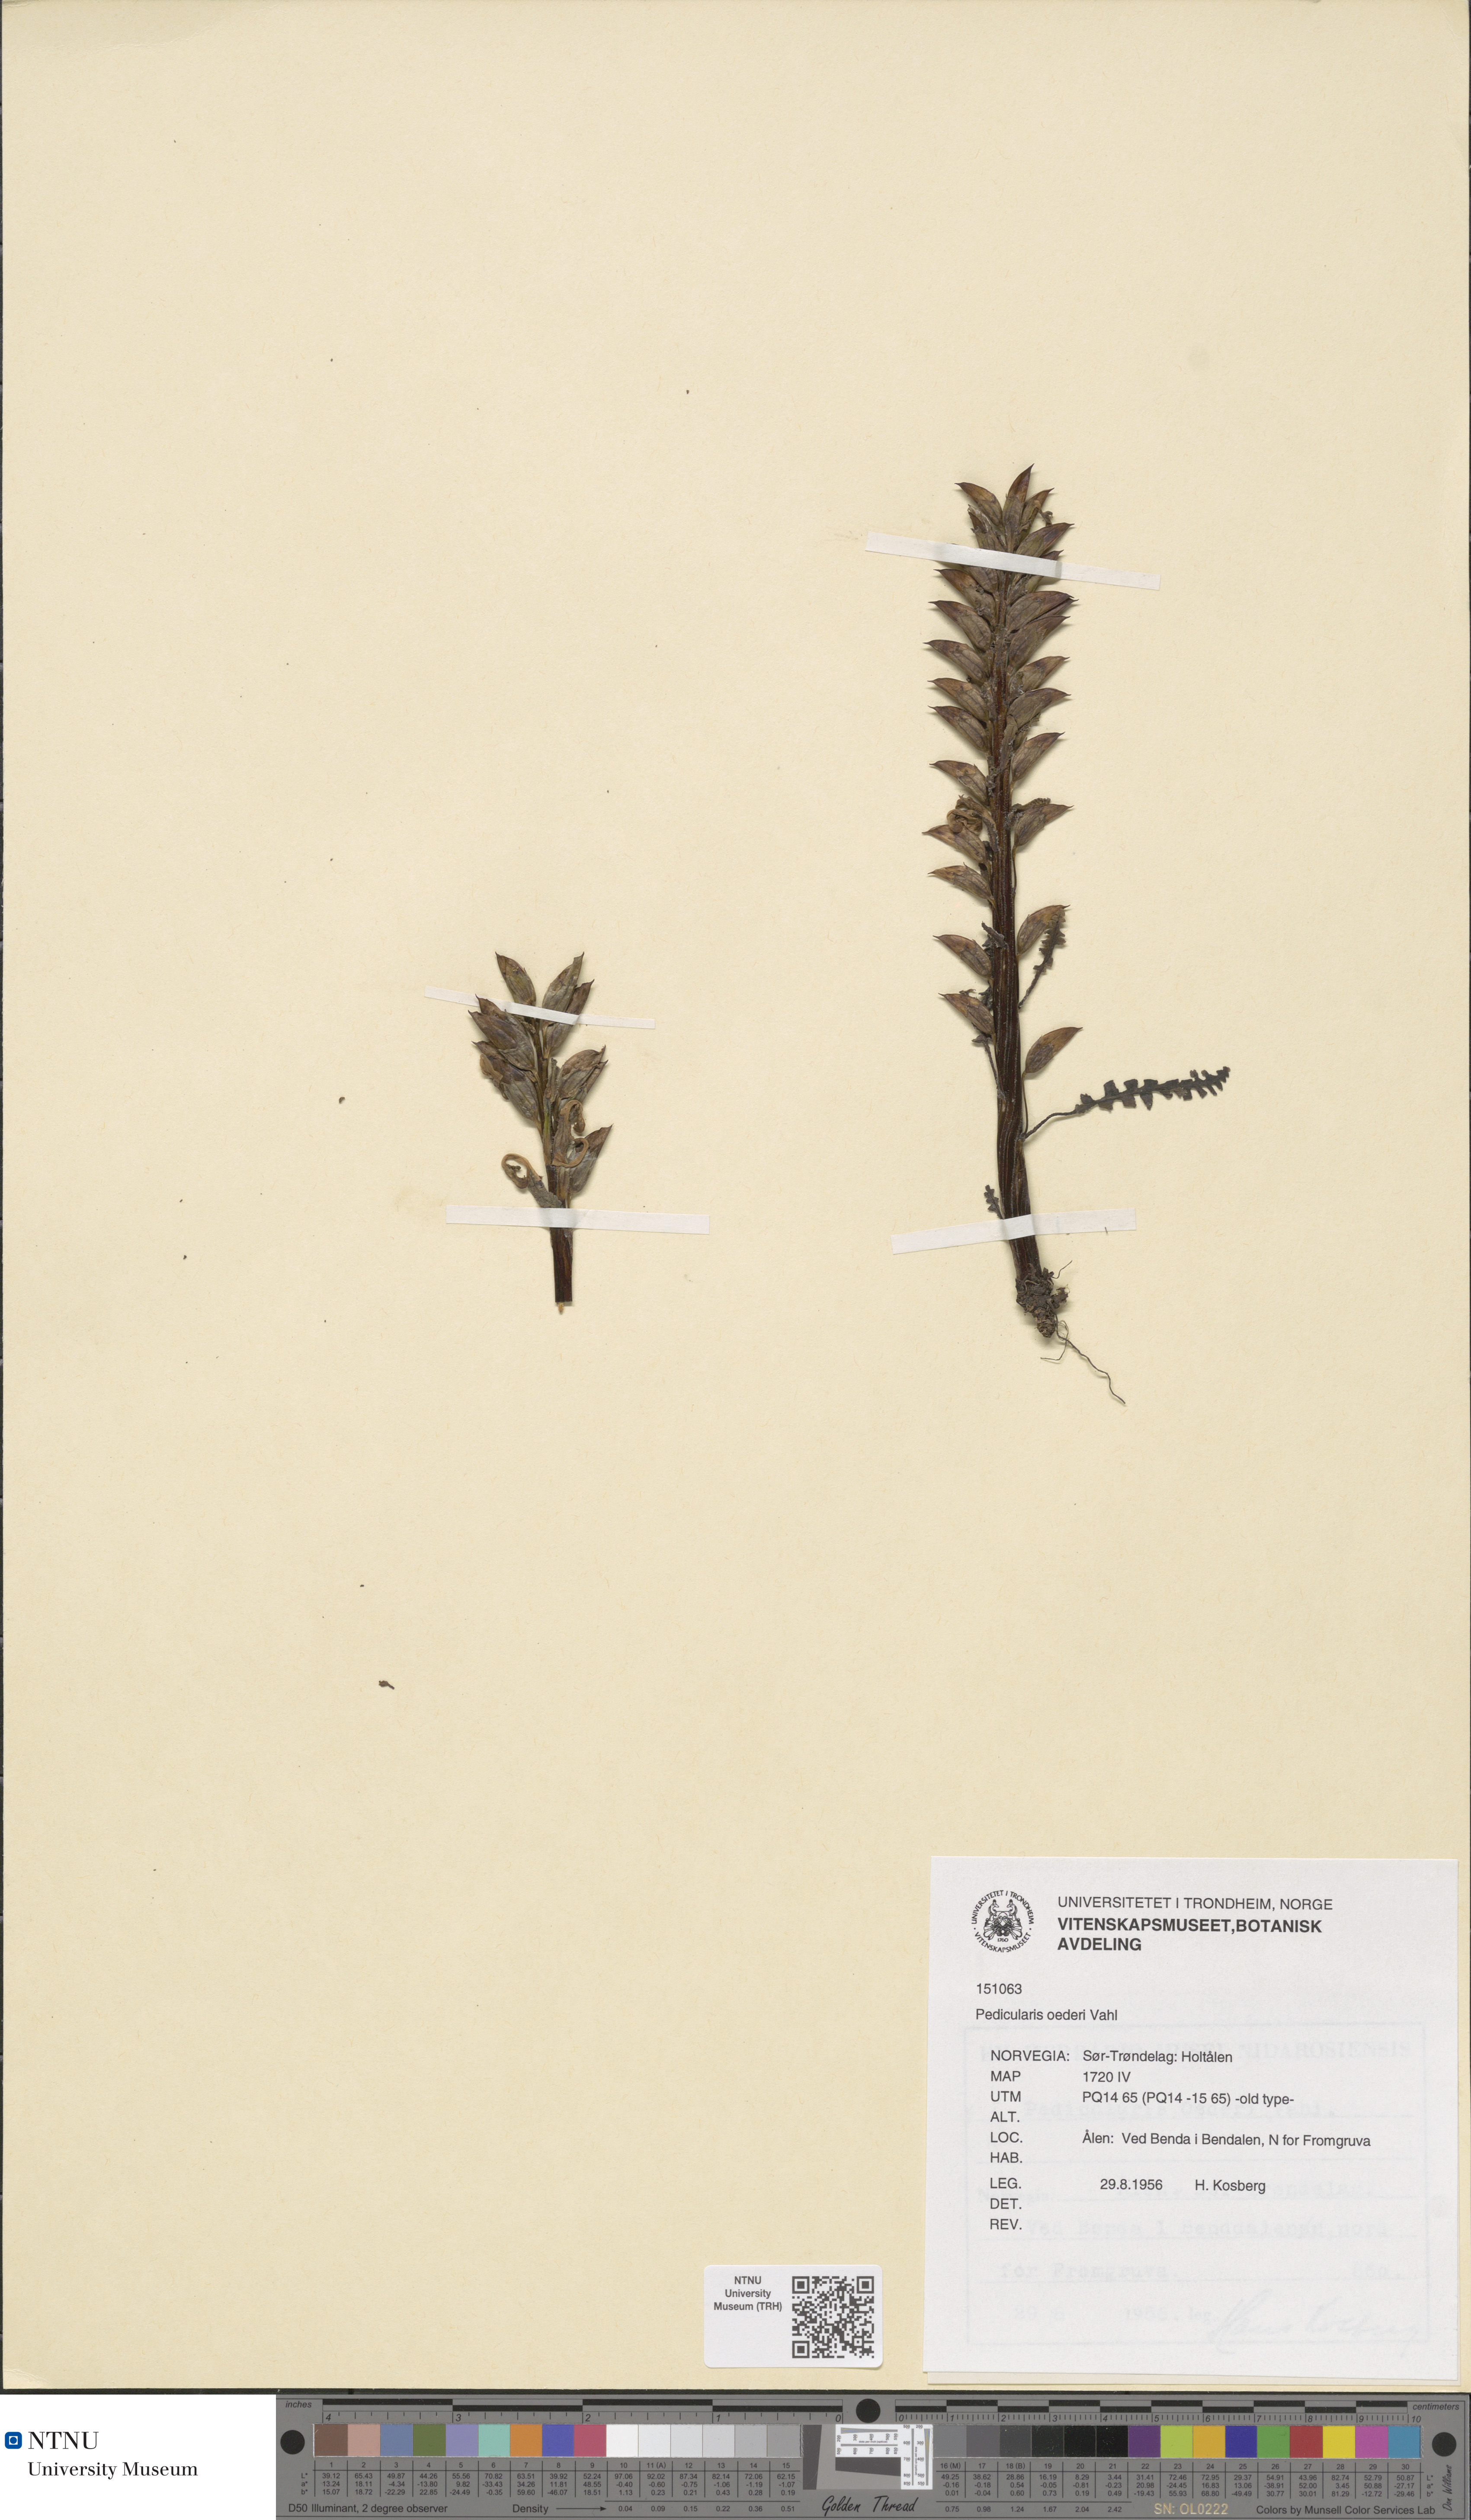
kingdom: Plantae
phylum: Tracheophyta
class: Magnoliopsida
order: Lamiales
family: Orobanchaceae
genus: Pedicularis
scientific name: Pedicularis oederi
